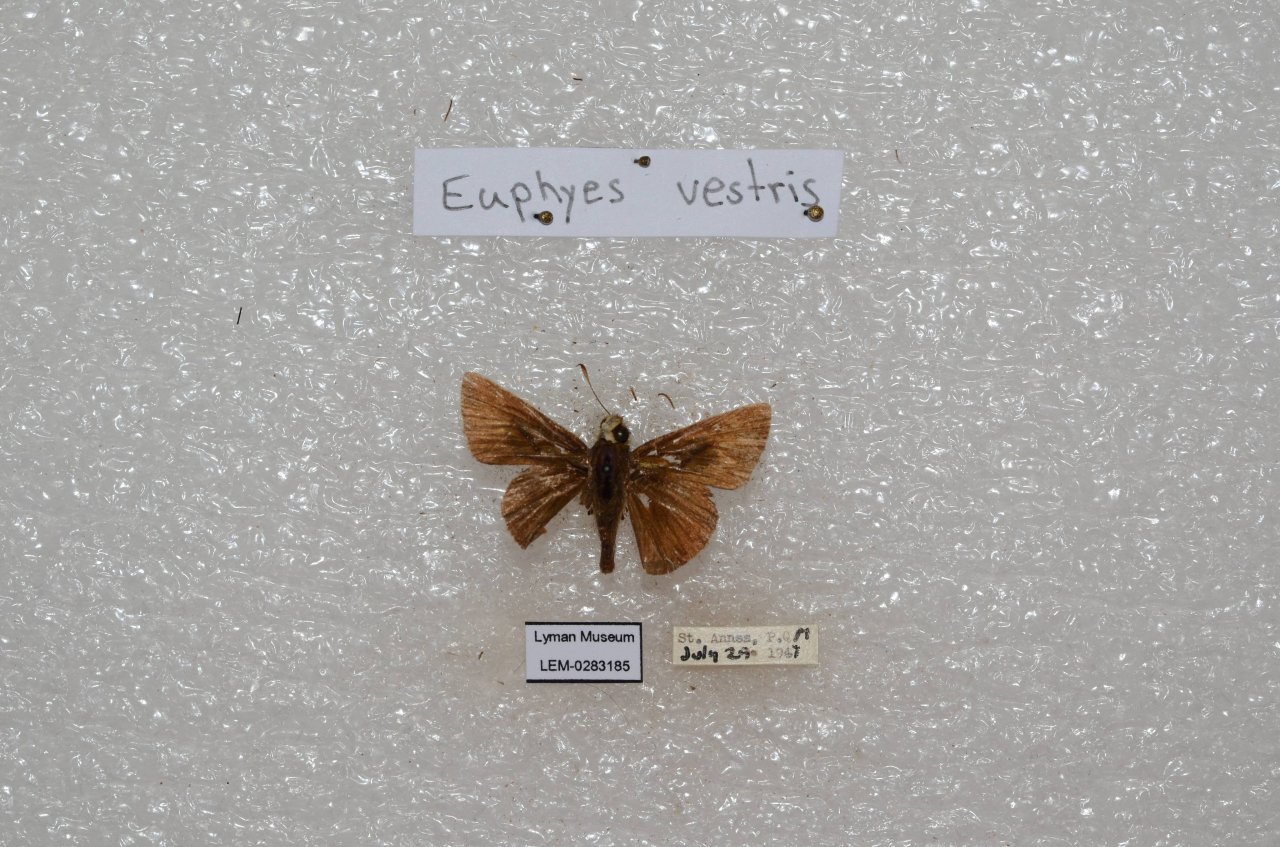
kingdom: Animalia
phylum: Arthropoda
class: Insecta
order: Lepidoptera
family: Hesperiidae
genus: Euphyes
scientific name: Euphyes vestris
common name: Dun Skipper
